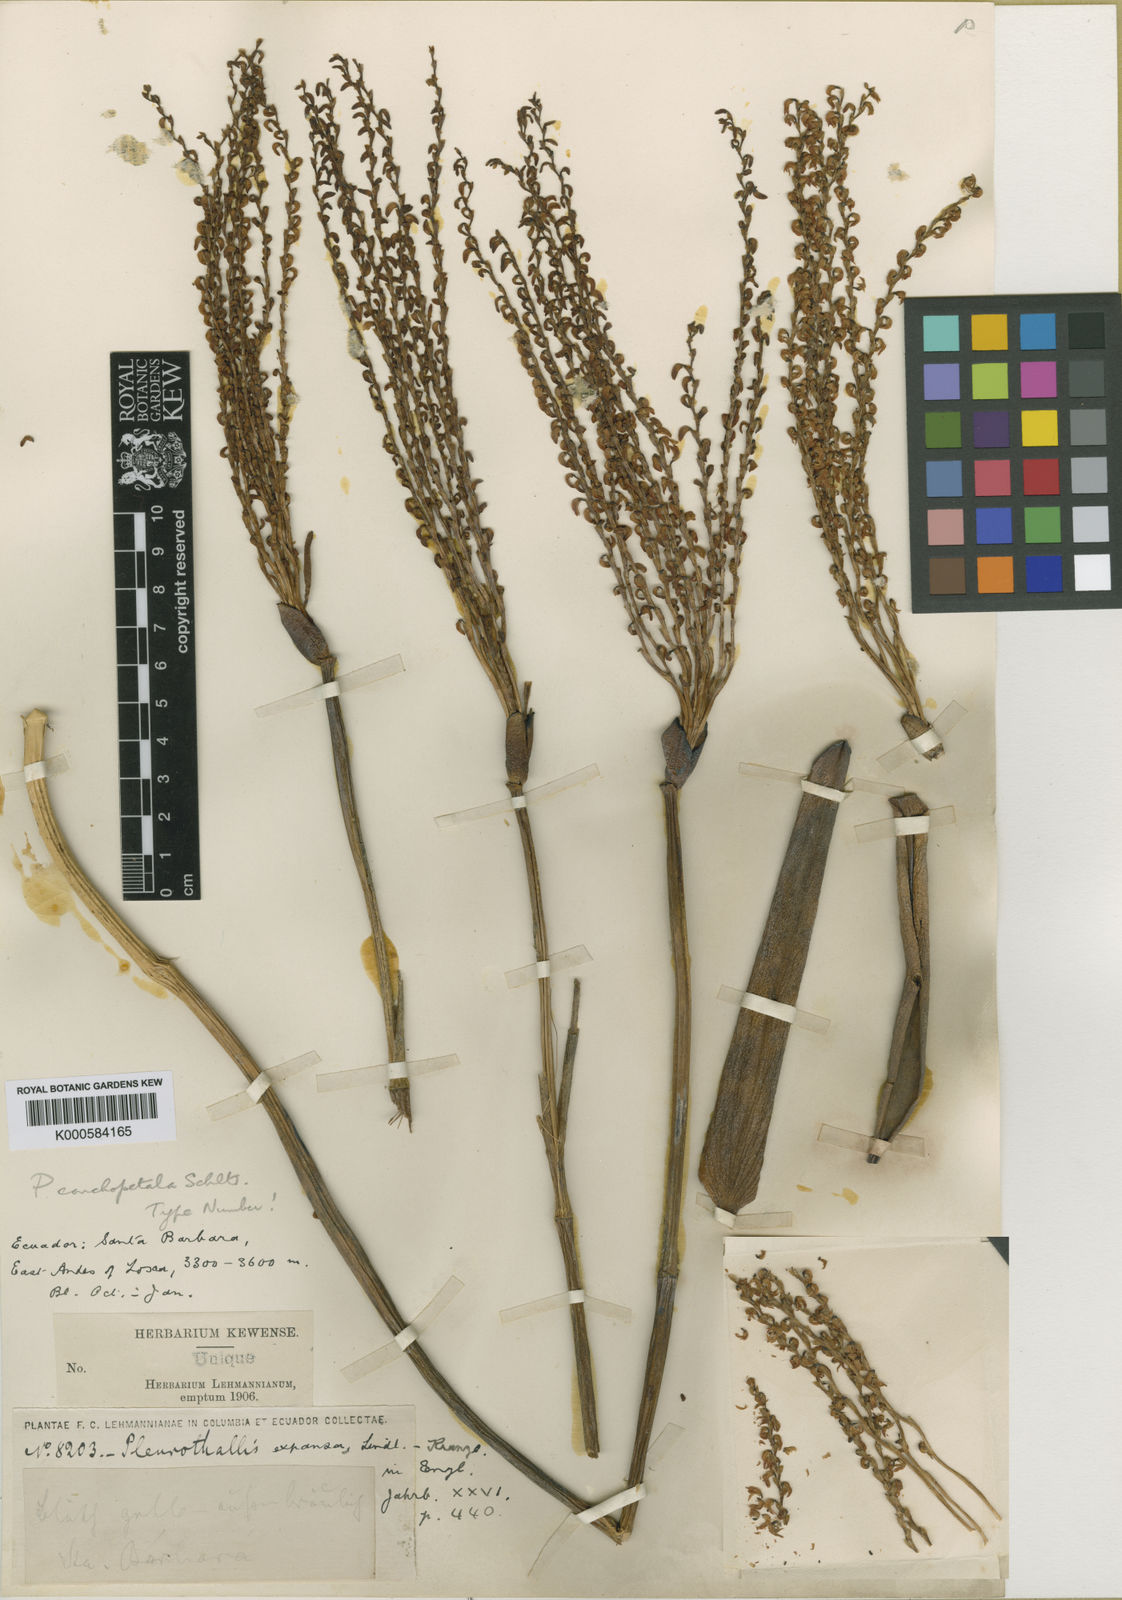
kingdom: Plantae
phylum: Tracheophyta
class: Liliopsida
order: Asparagales
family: Orchidaceae
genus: Stelis
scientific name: Stelis laevigata
